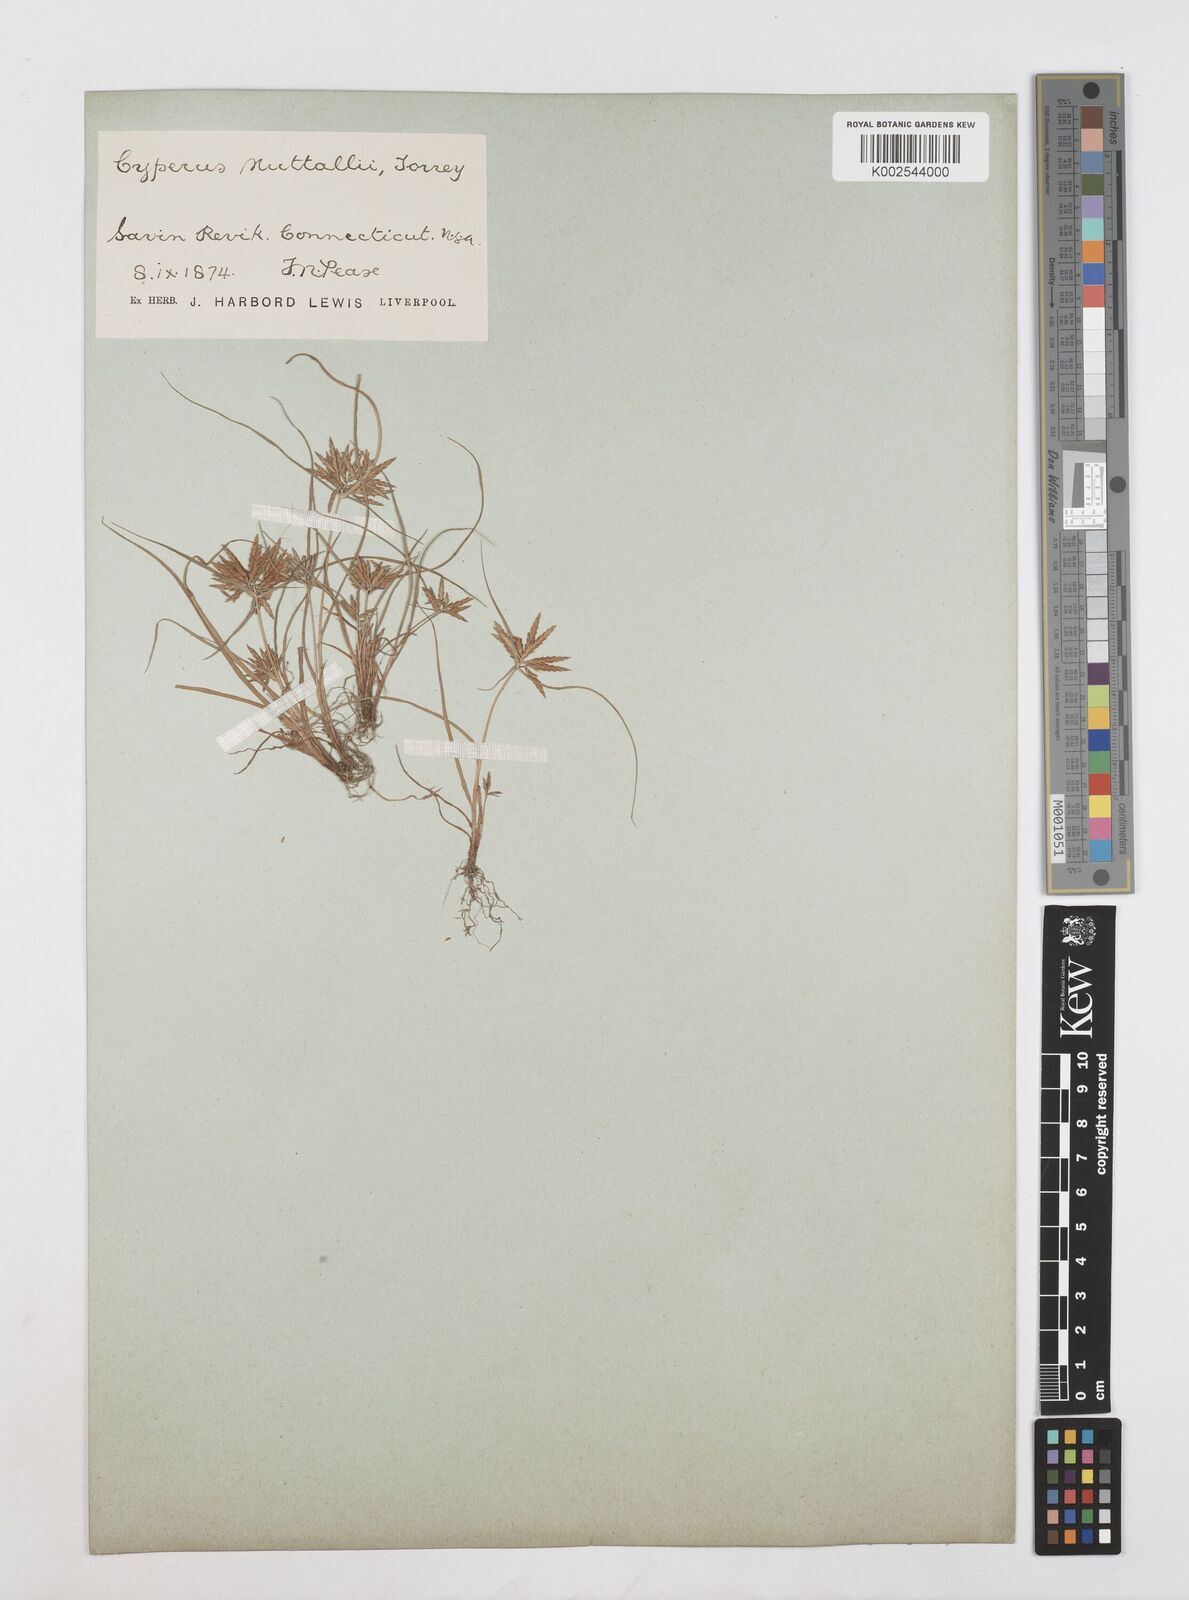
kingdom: Plantae
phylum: Tracheophyta
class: Liliopsida
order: Poales
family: Cyperaceae
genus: Cyperus
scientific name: Cyperus filicinus
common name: Fern flatsedge
